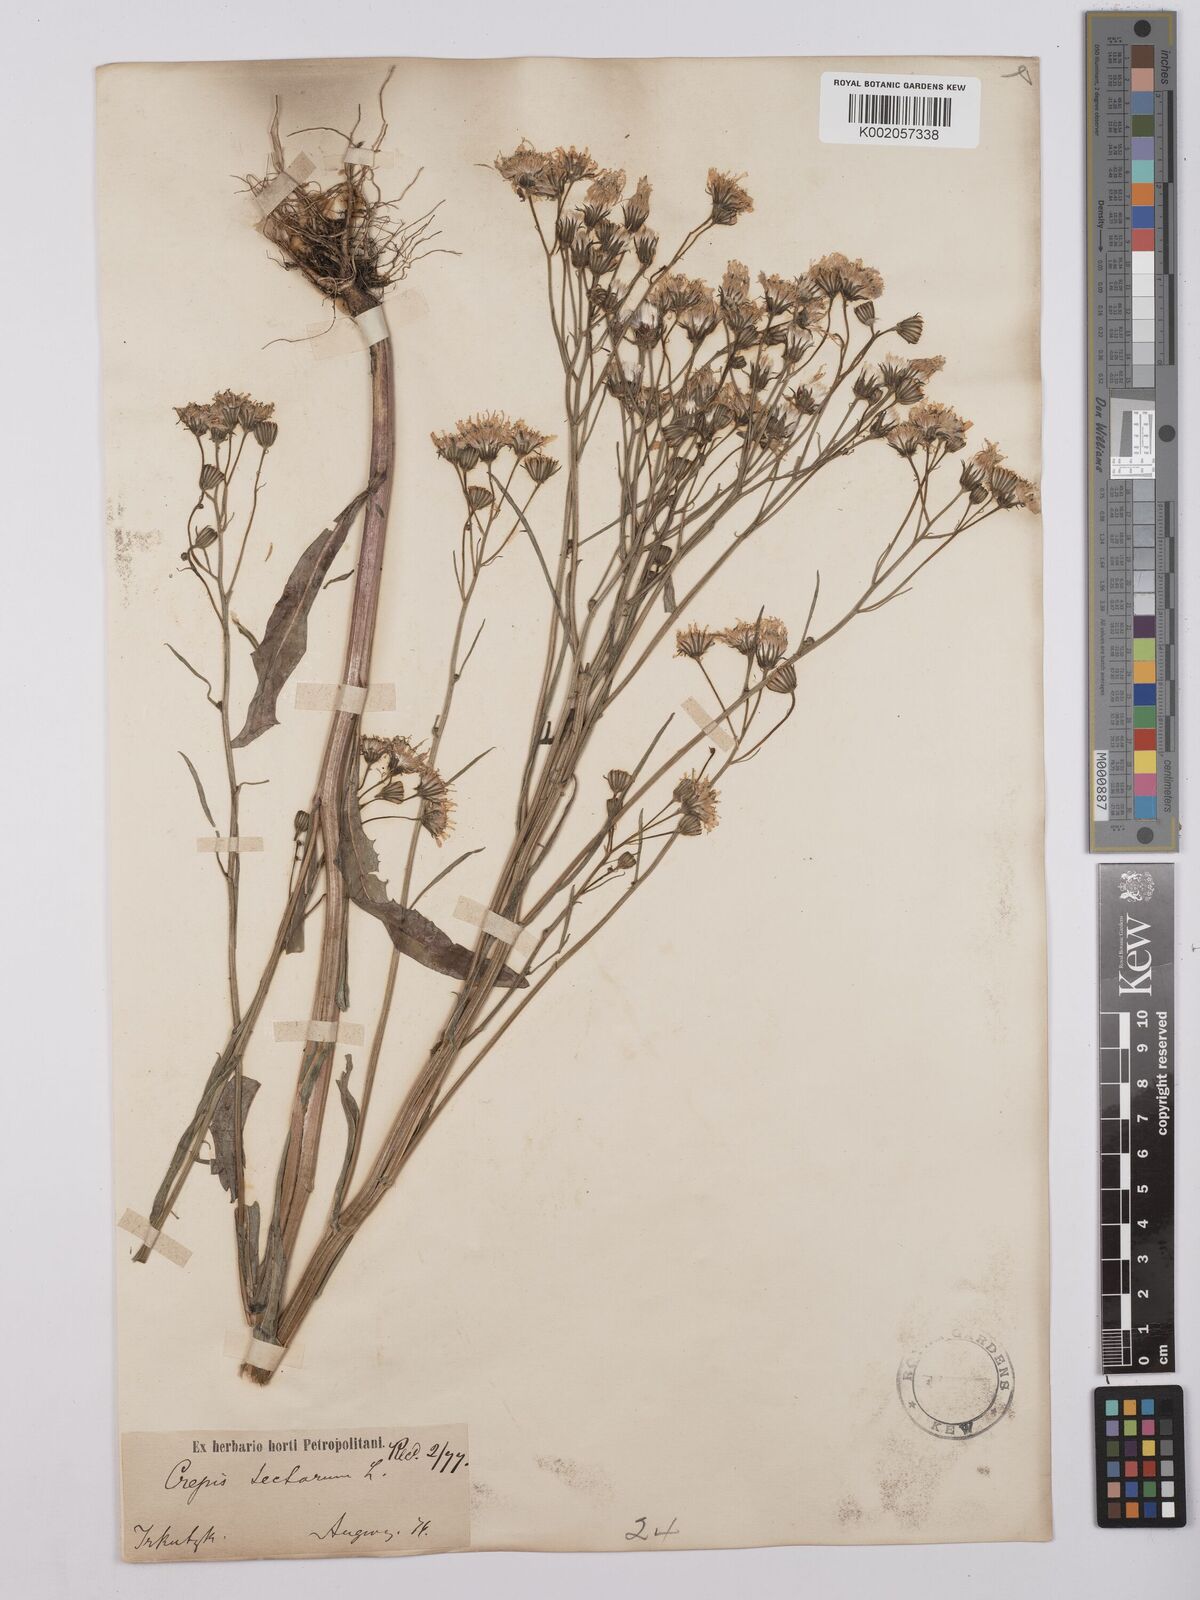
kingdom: Plantae
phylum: Tracheophyta
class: Magnoliopsida
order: Asterales
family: Asteraceae
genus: Crepis
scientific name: Crepis tectorum
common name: Narrow-leaved hawk's-beard
